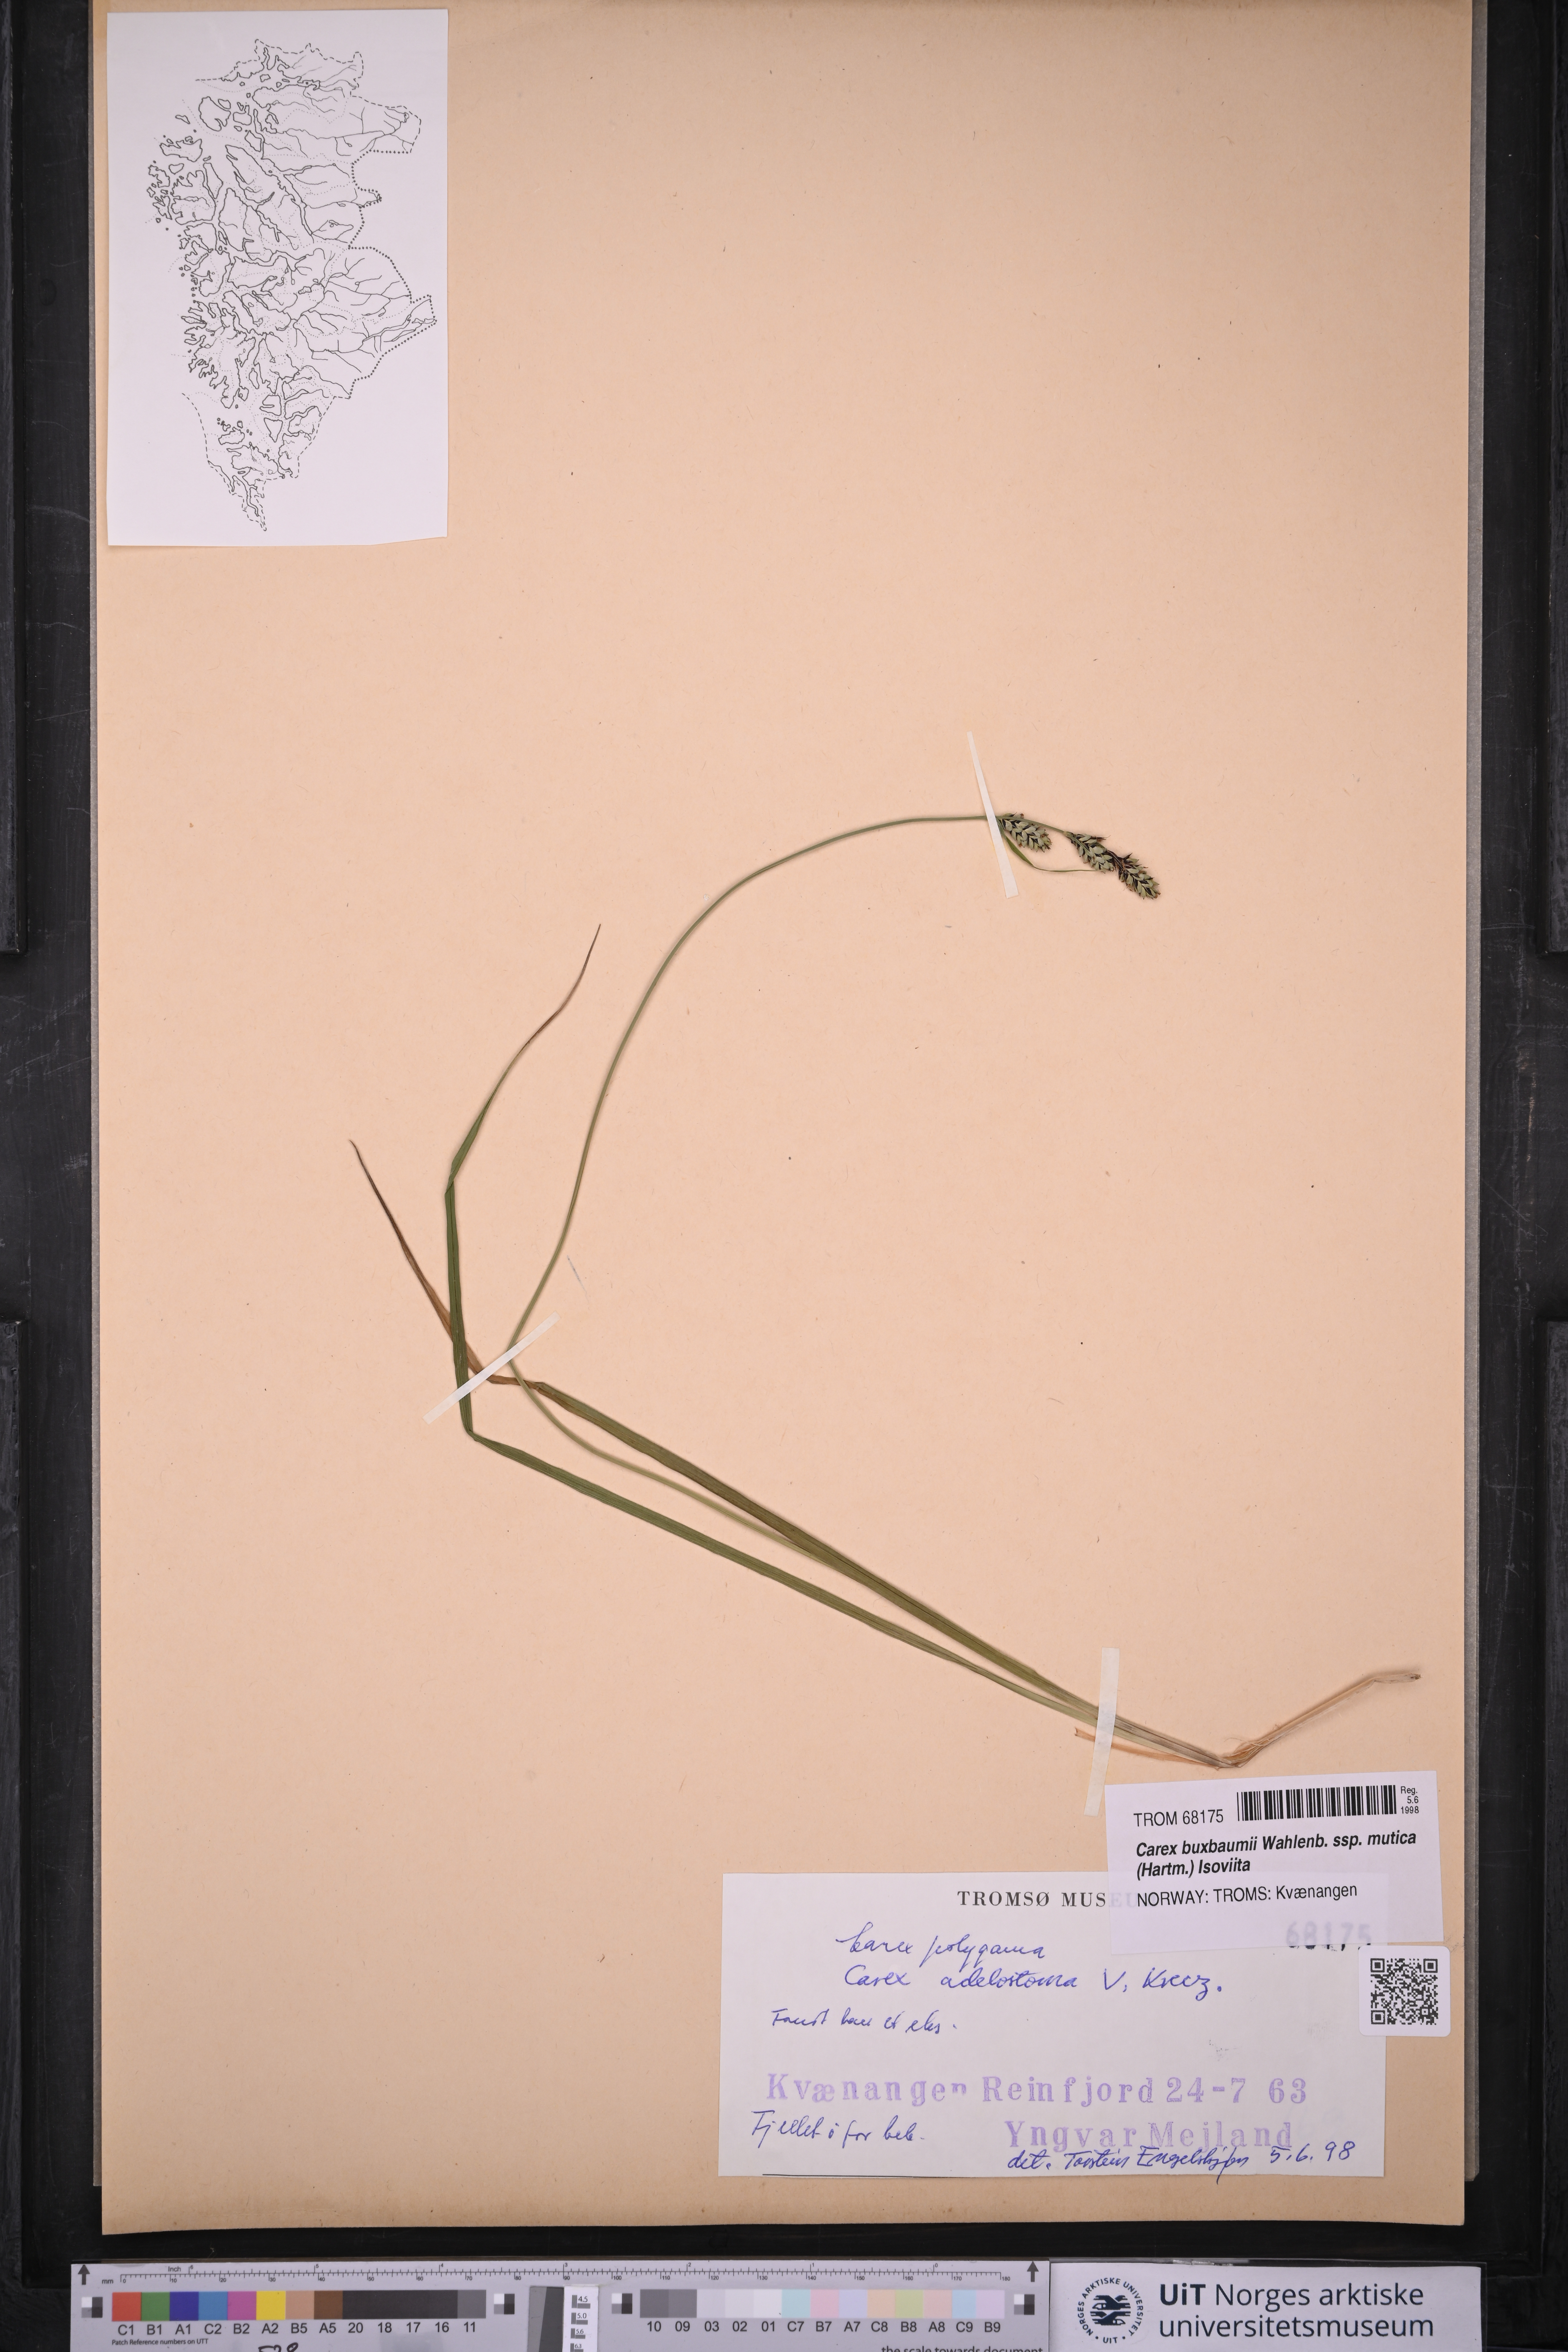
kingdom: Plantae
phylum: Tracheophyta
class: Liliopsida
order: Poales
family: Cyperaceae
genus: Carex
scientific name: Carex adelostoma
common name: Circumpolar sedge
